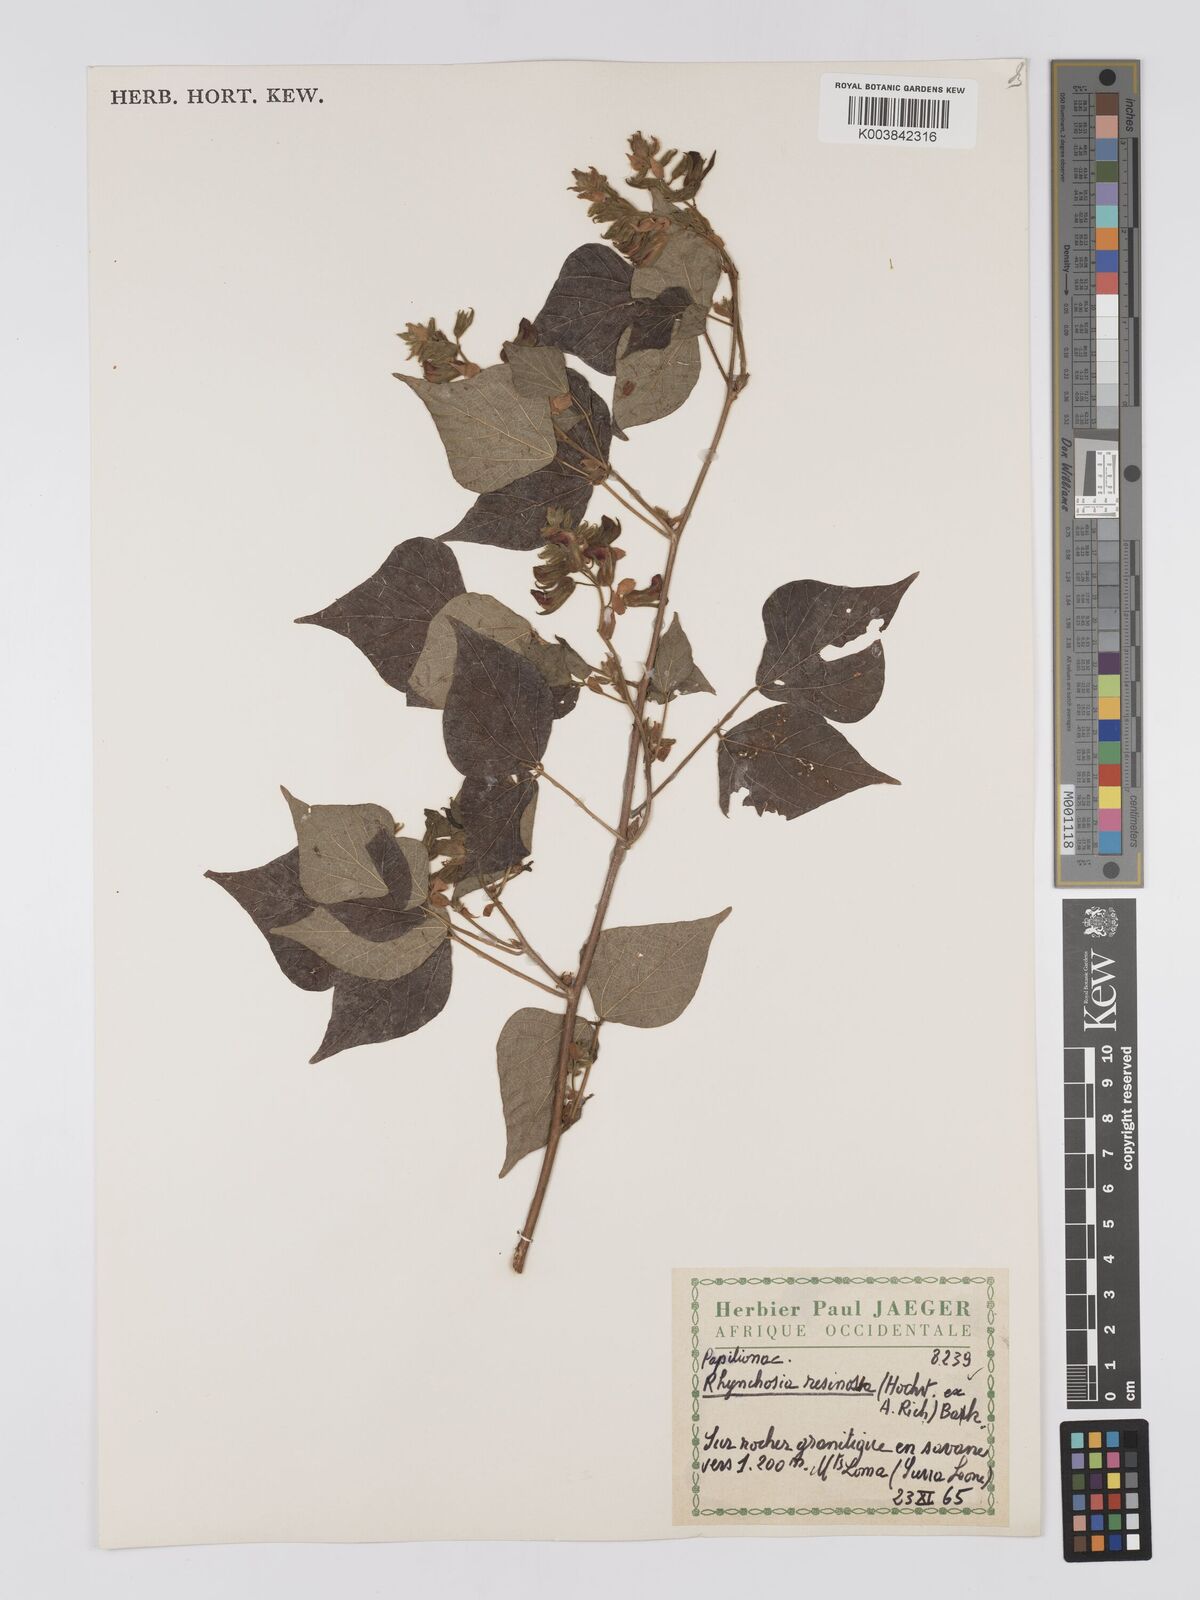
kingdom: Plantae
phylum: Tracheophyta
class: Magnoliopsida
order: Fabales
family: Fabaceae
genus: Rhynchosia
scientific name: Rhynchosia resinosa
